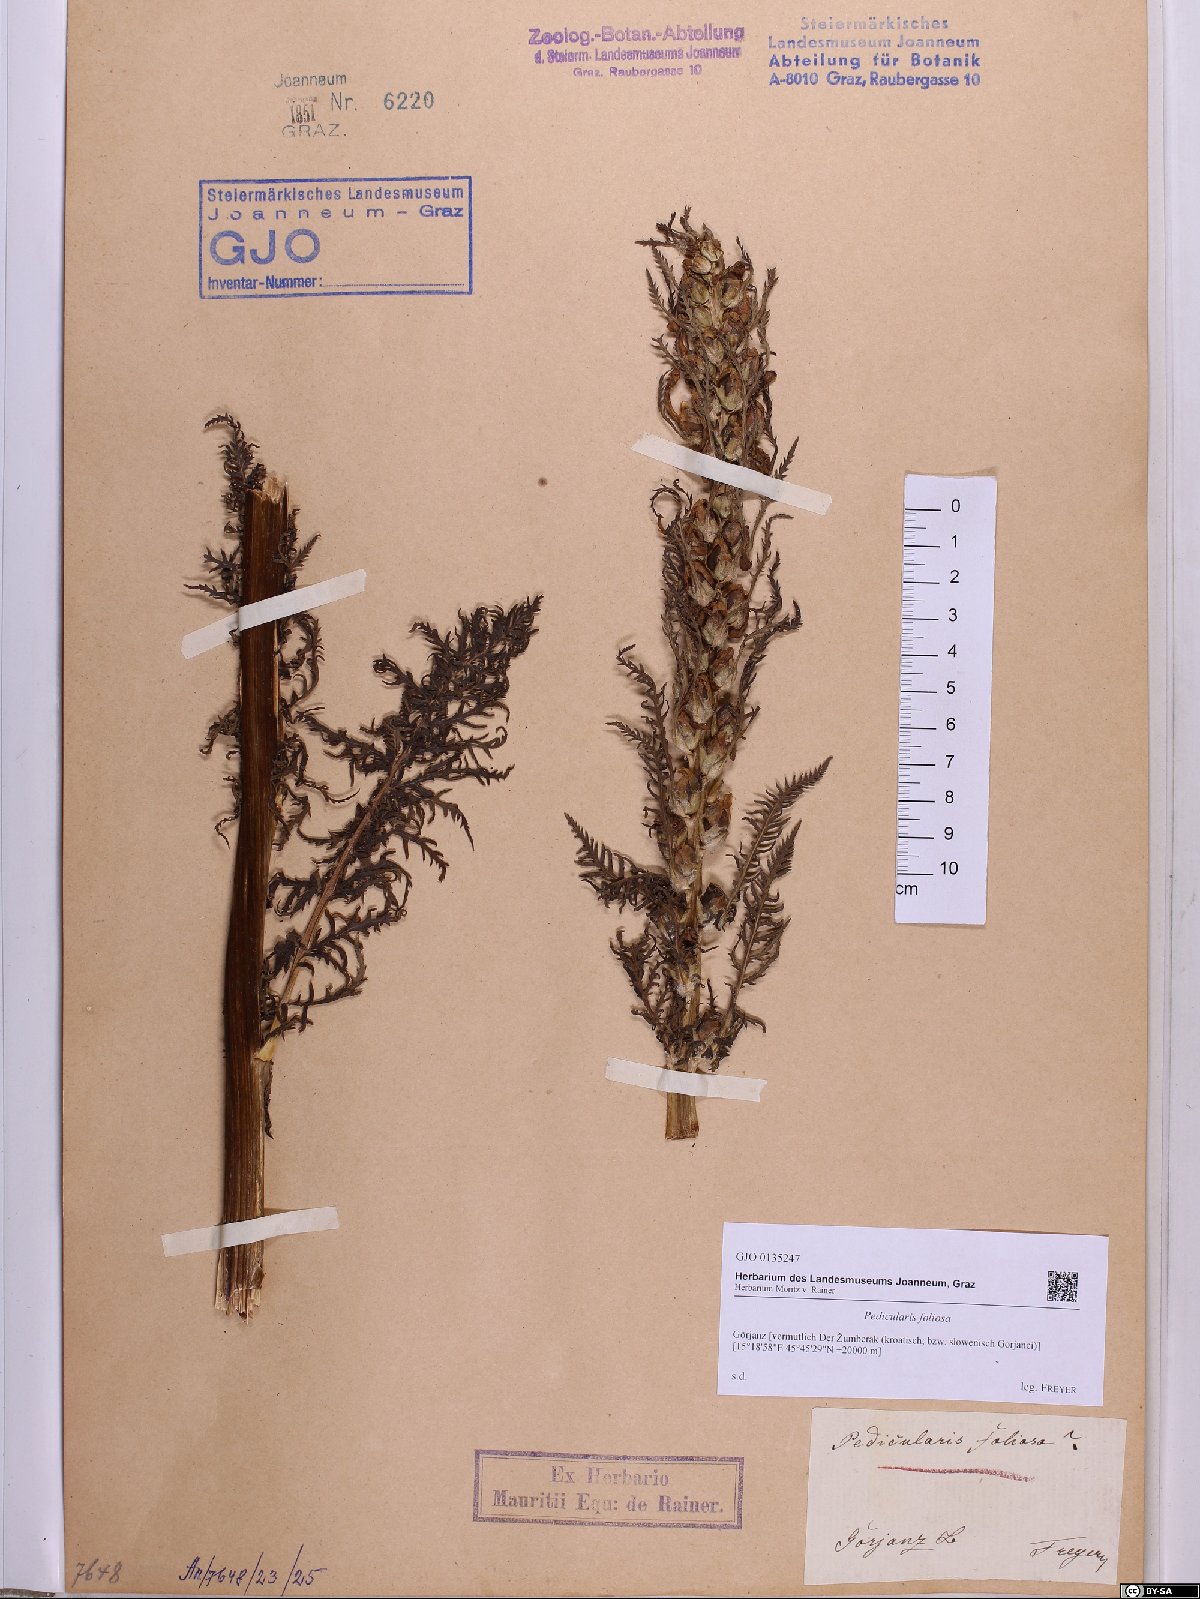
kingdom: Plantae
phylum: Tracheophyta
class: Magnoliopsida
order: Lamiales
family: Orobanchaceae
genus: Pedicularis
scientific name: Pedicularis foliosa
